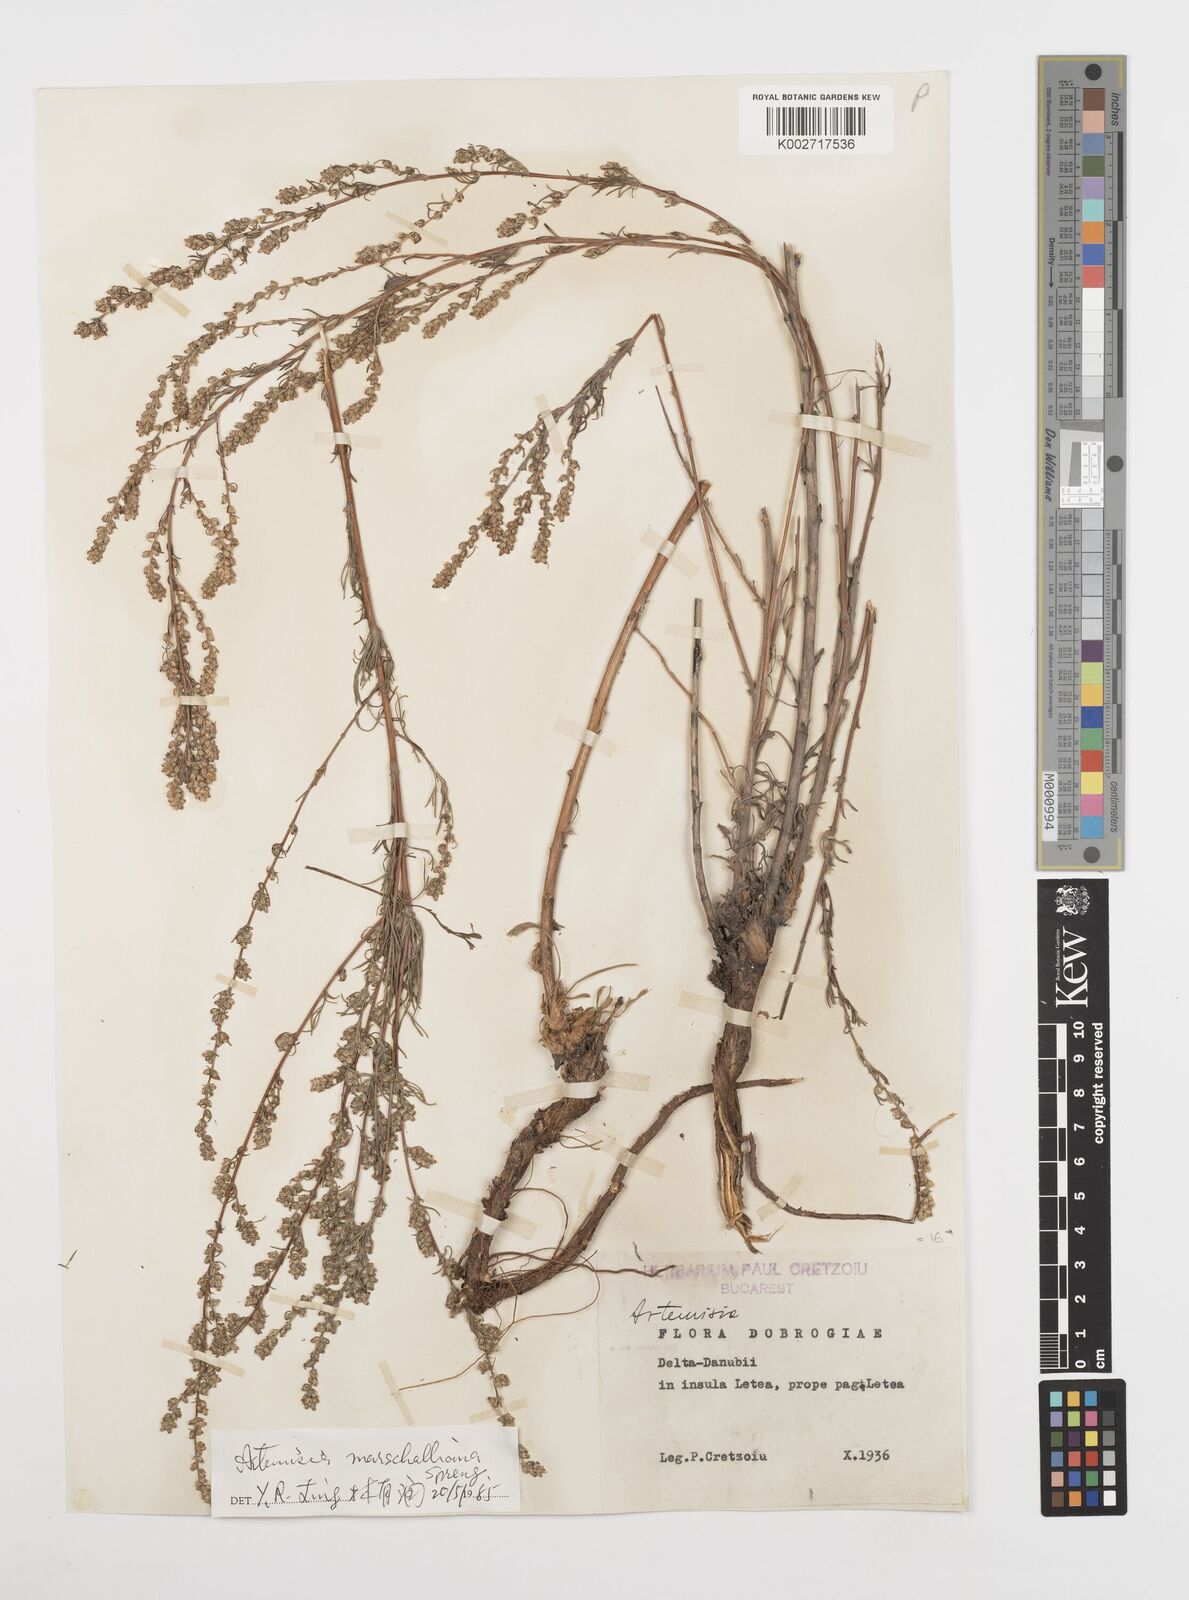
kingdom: Plantae
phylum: Tracheophyta
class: Magnoliopsida
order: Asterales
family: Asteraceae
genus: Artemisia
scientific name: Artemisia marschalliana
